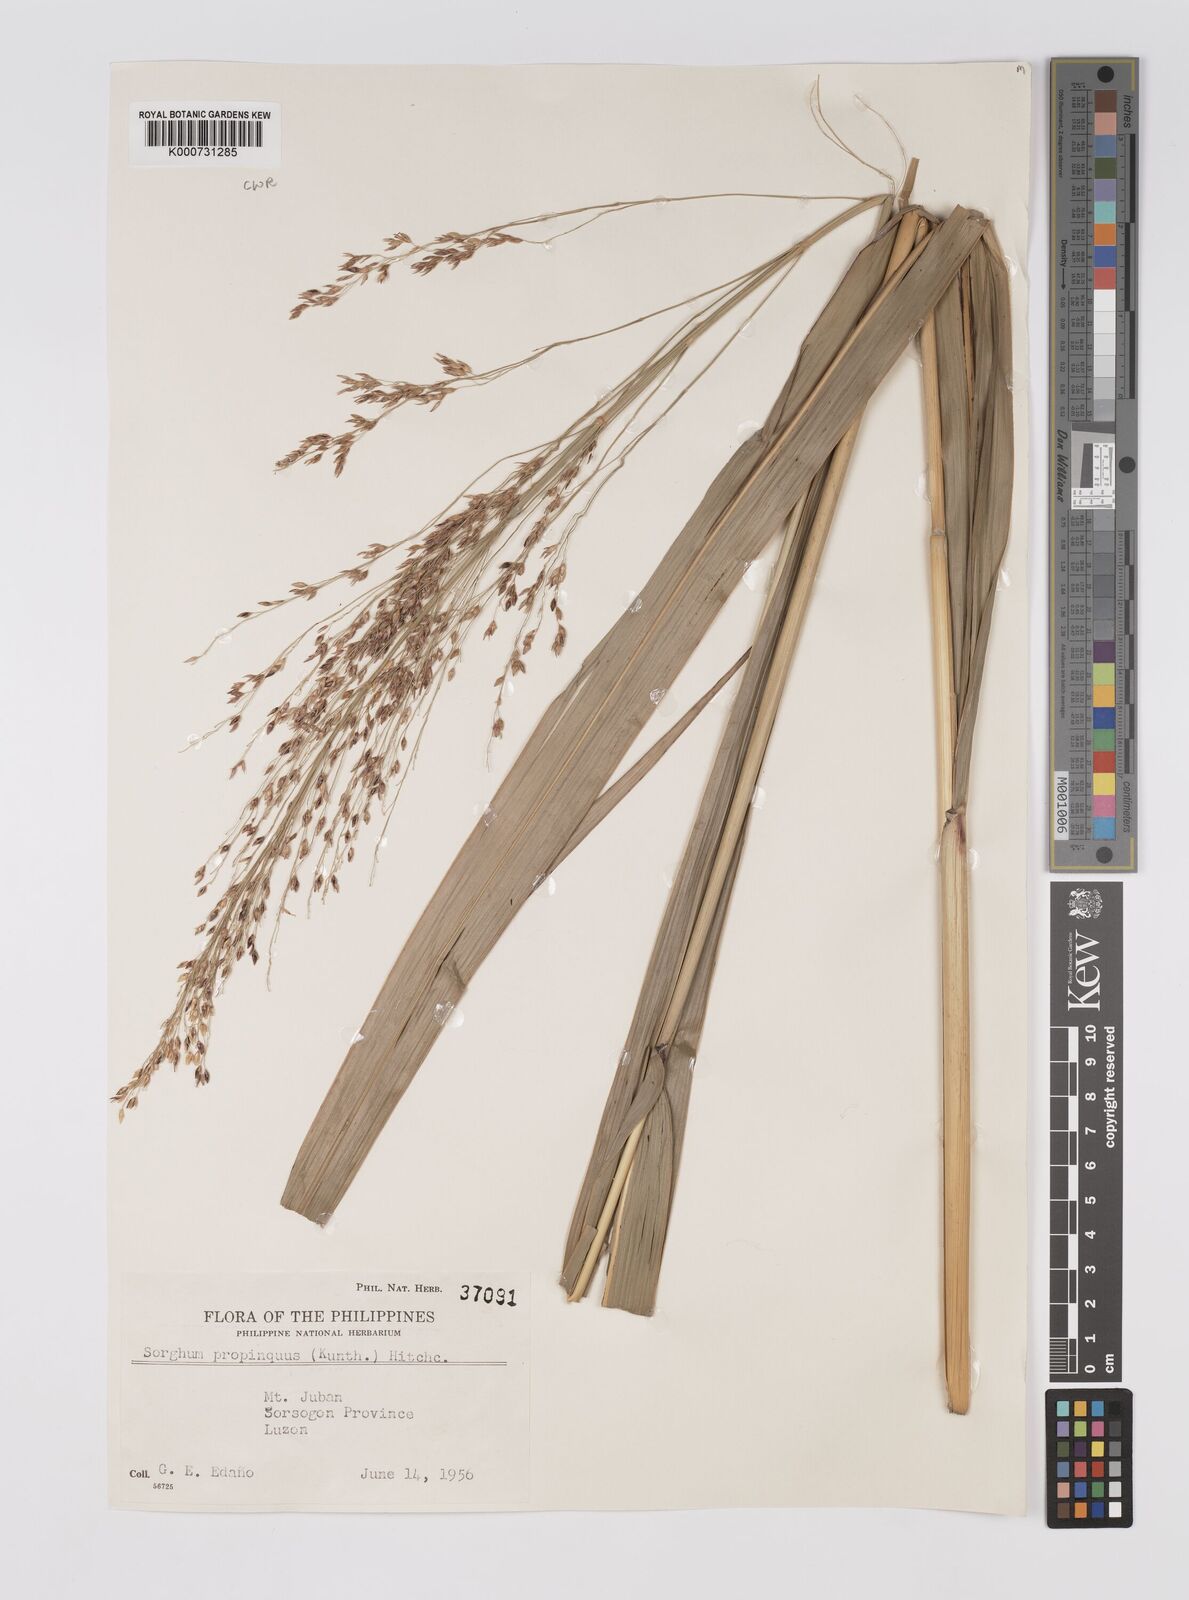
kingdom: Plantae
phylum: Tracheophyta
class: Liliopsida
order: Poales
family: Poaceae
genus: Sorghum
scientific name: Sorghum propinquum
